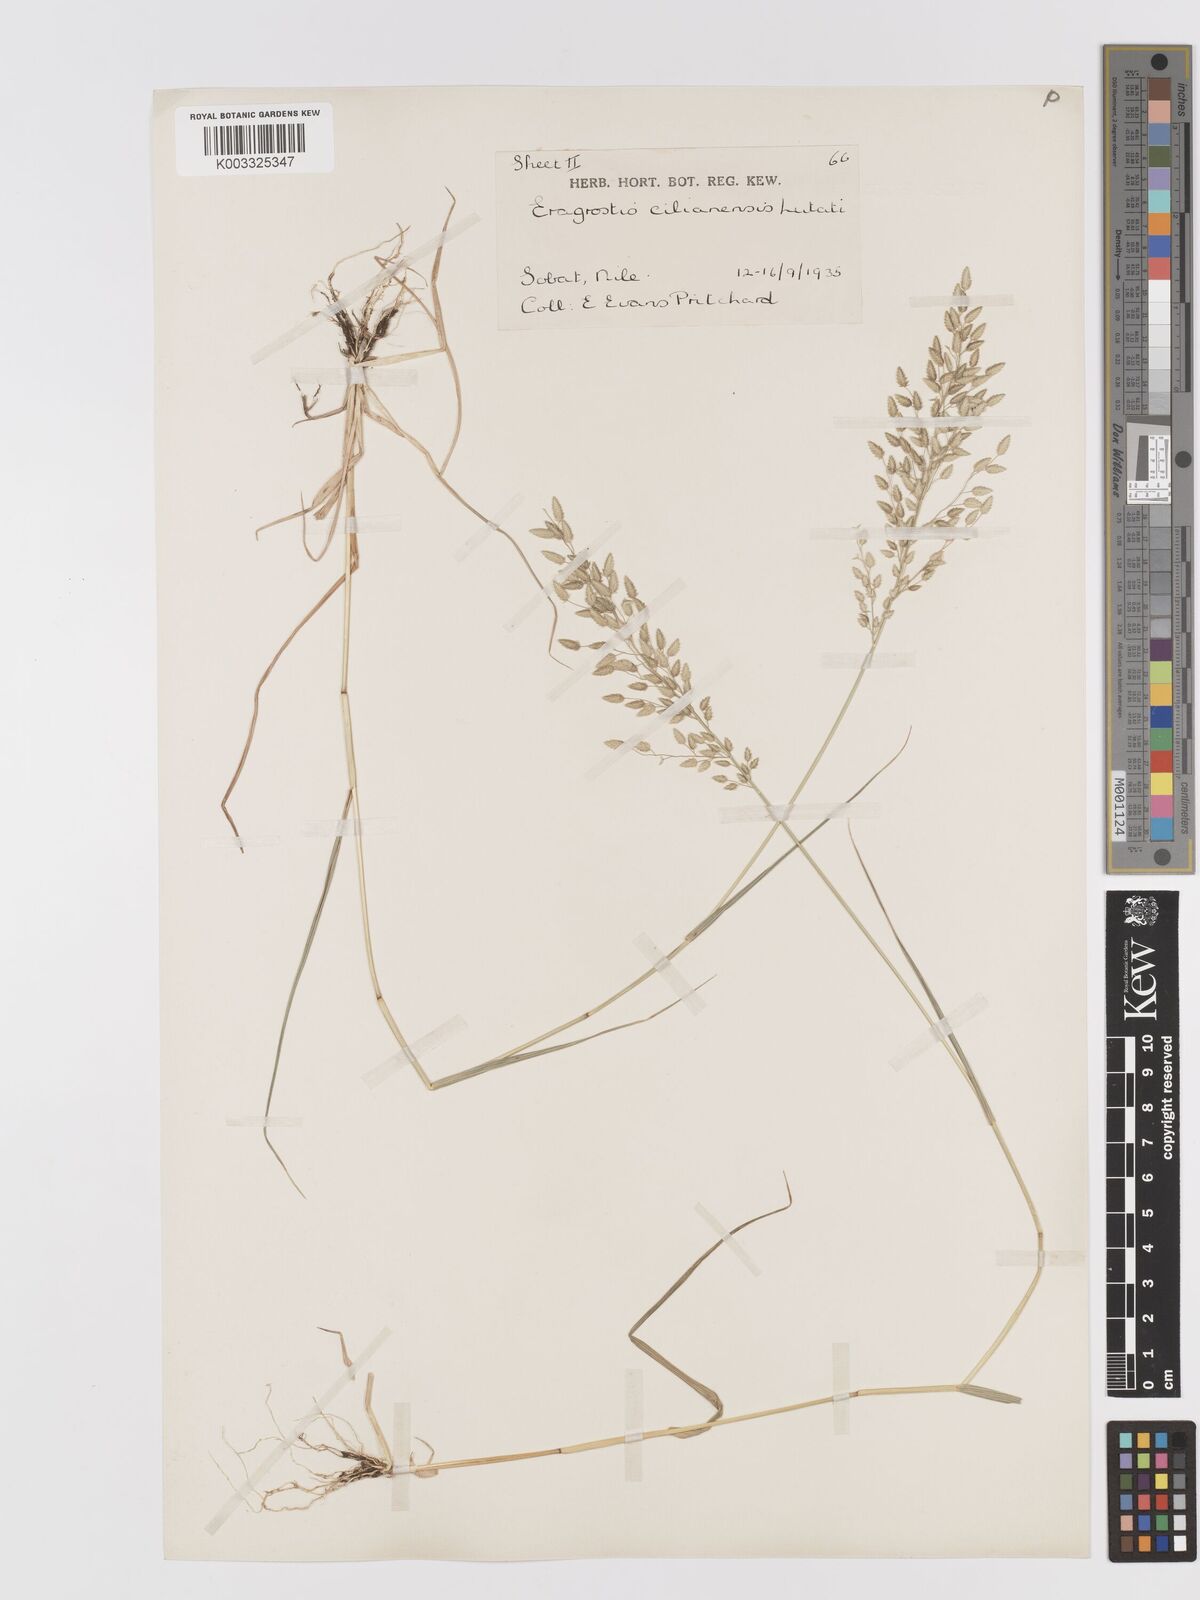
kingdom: Plantae
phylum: Tracheophyta
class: Liliopsida
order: Poales
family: Poaceae
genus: Eragrostis
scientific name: Eragrostis cilianensis
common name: Stinkgrass
